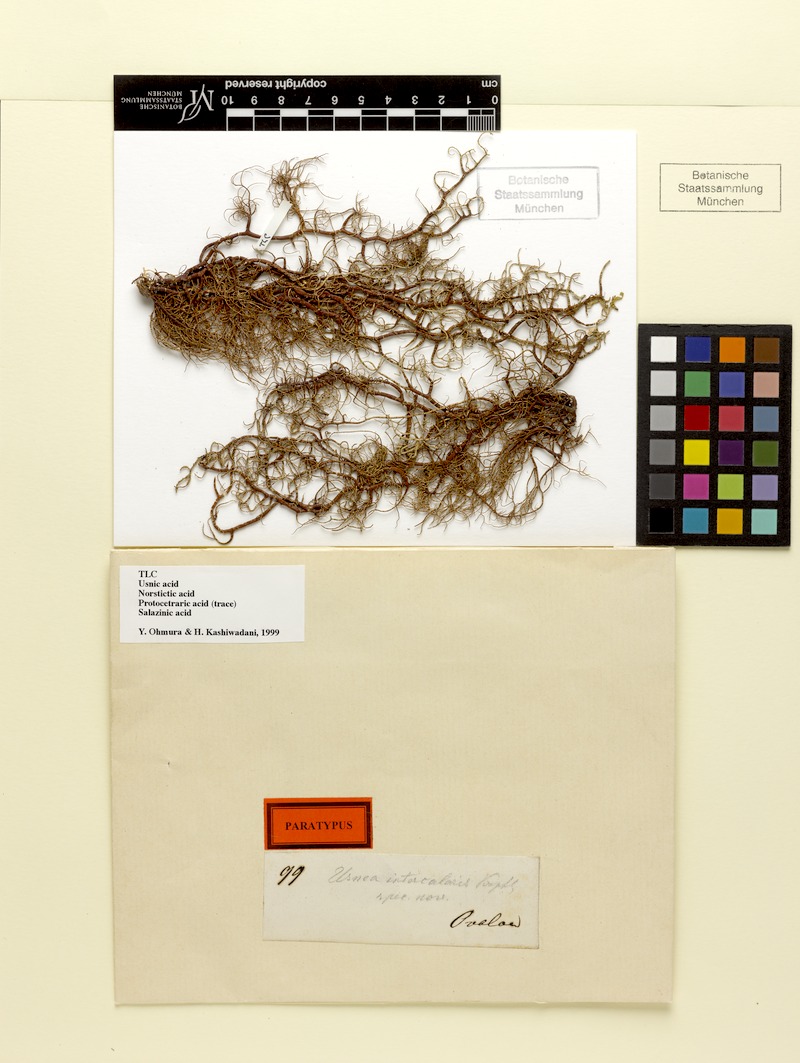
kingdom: Fungi
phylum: Ascomycota
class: Lecanoromycetes
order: Lecanorales
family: Parmeliaceae
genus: Usnea
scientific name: Usnea nidifica
